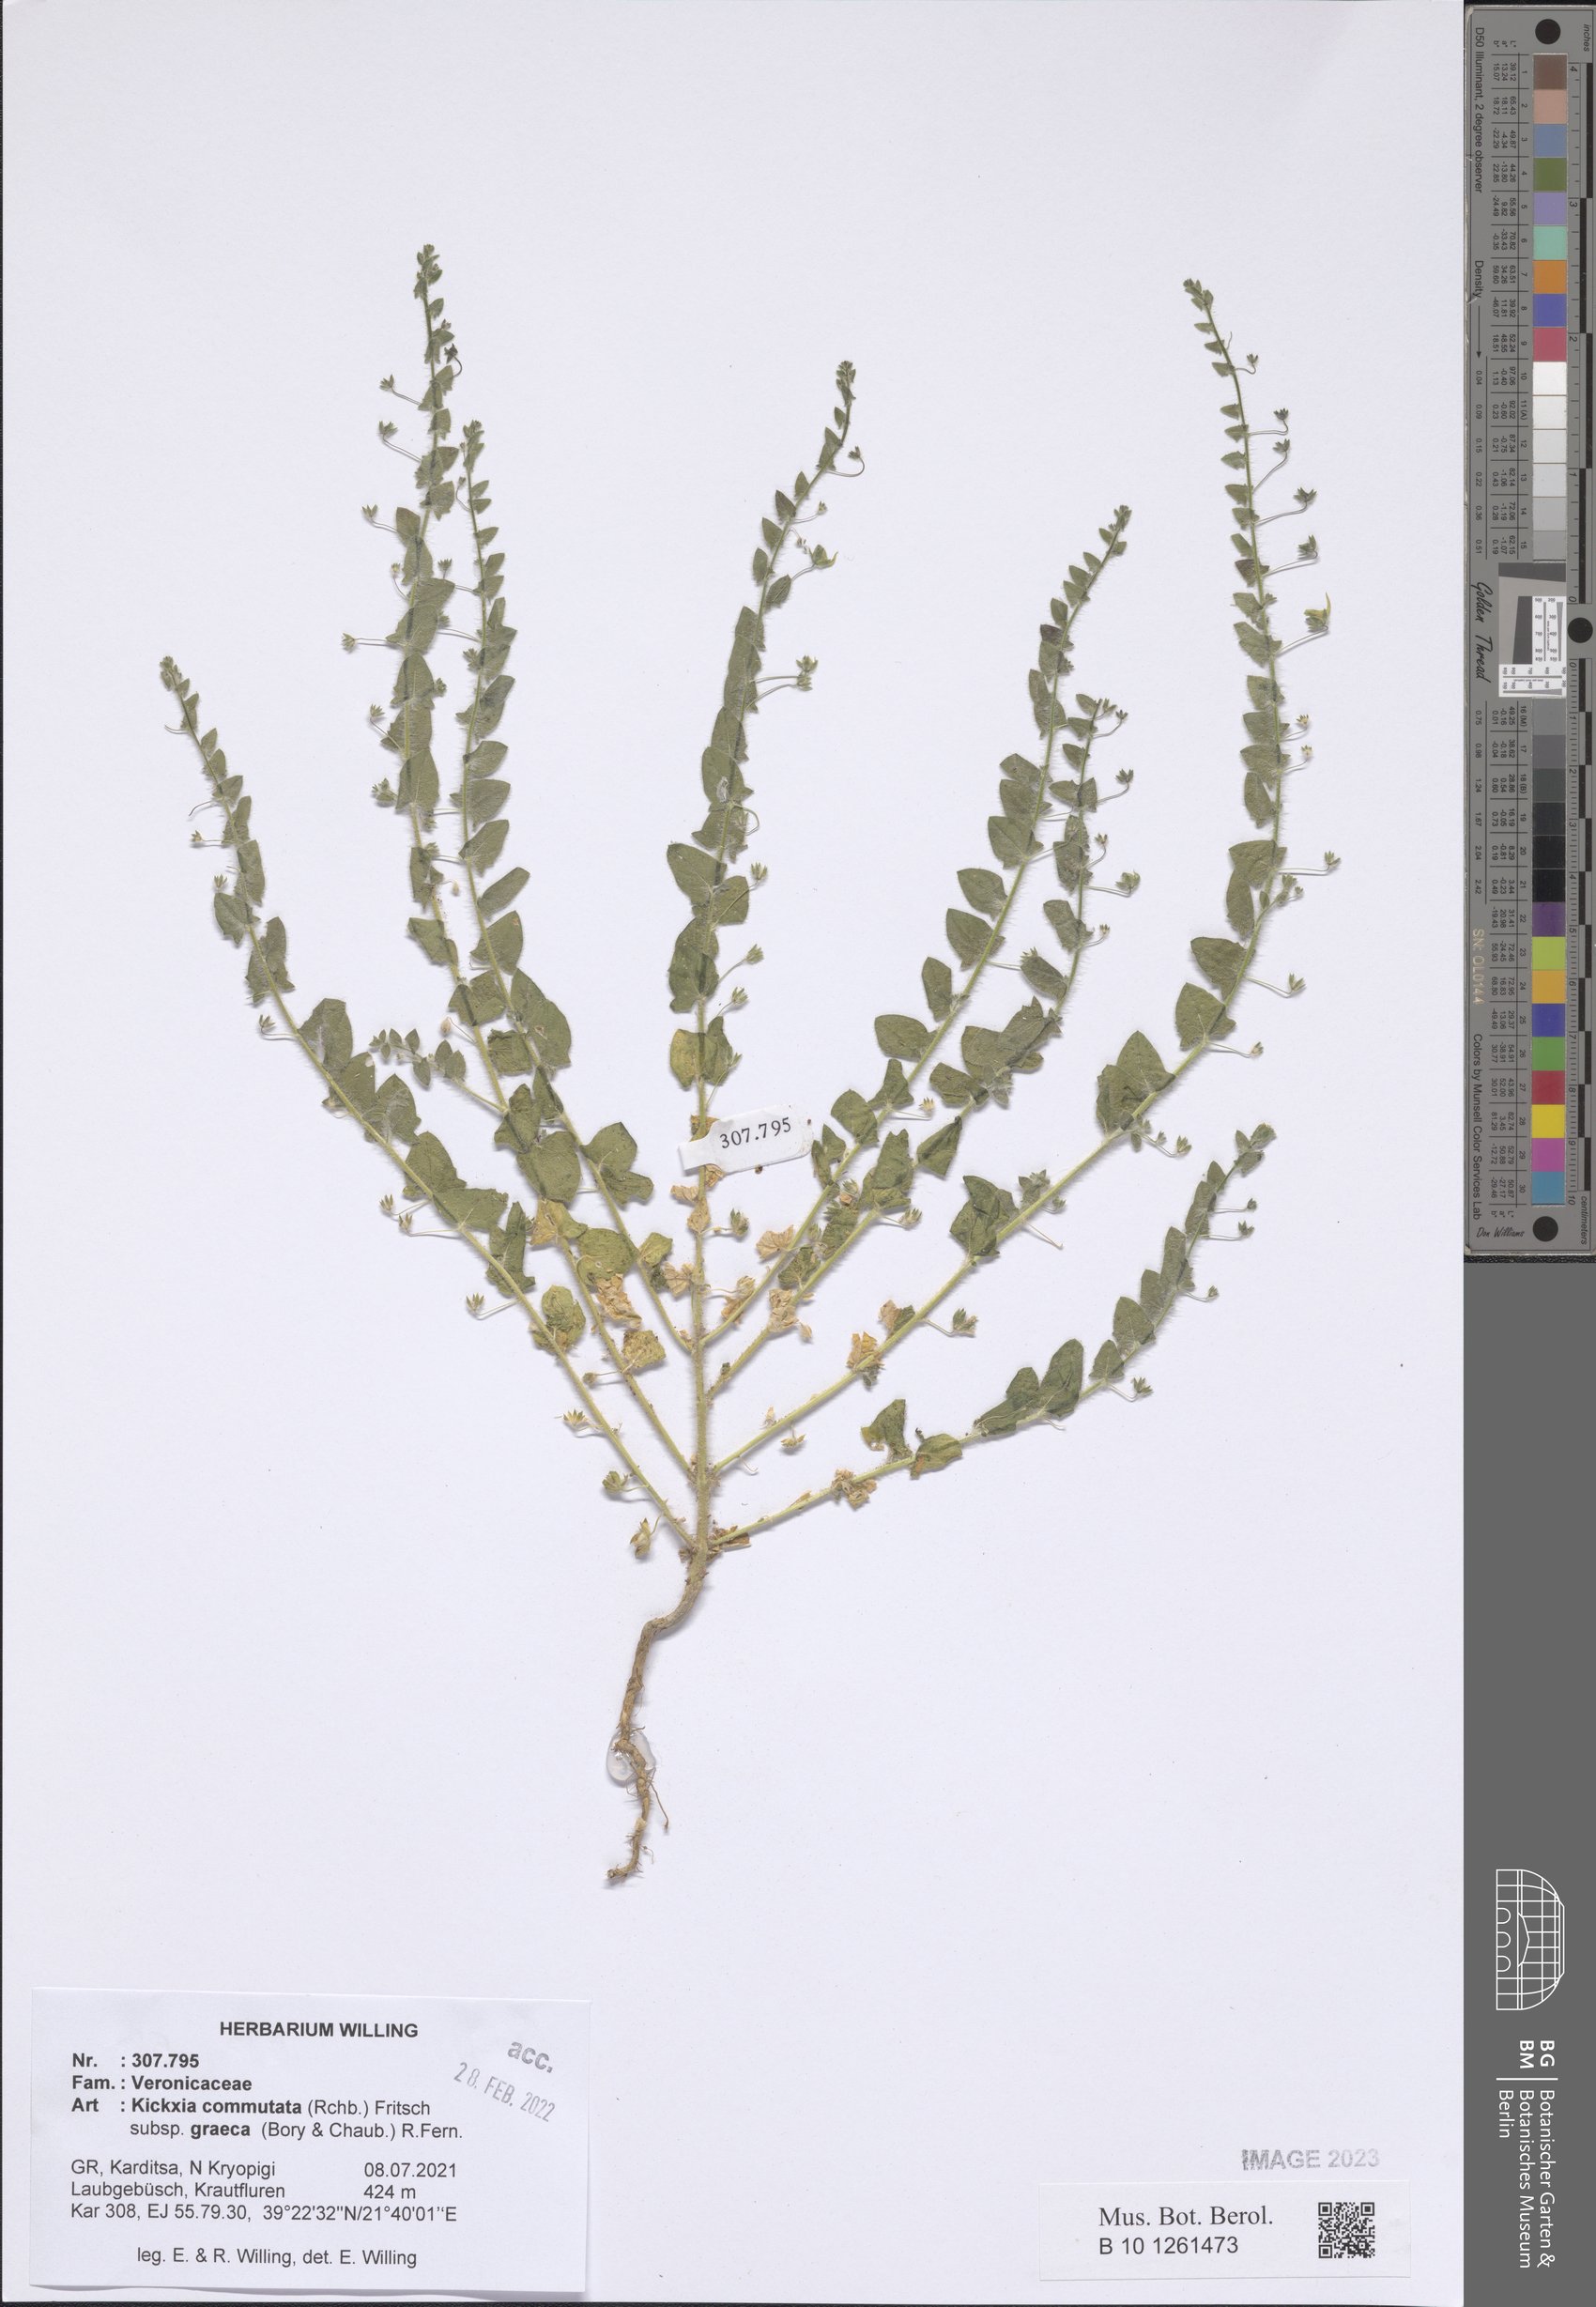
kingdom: Plantae
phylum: Tracheophyta
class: Magnoliopsida
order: Lamiales
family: Plantaginaceae
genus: Kickxia
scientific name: Kickxia commutata
